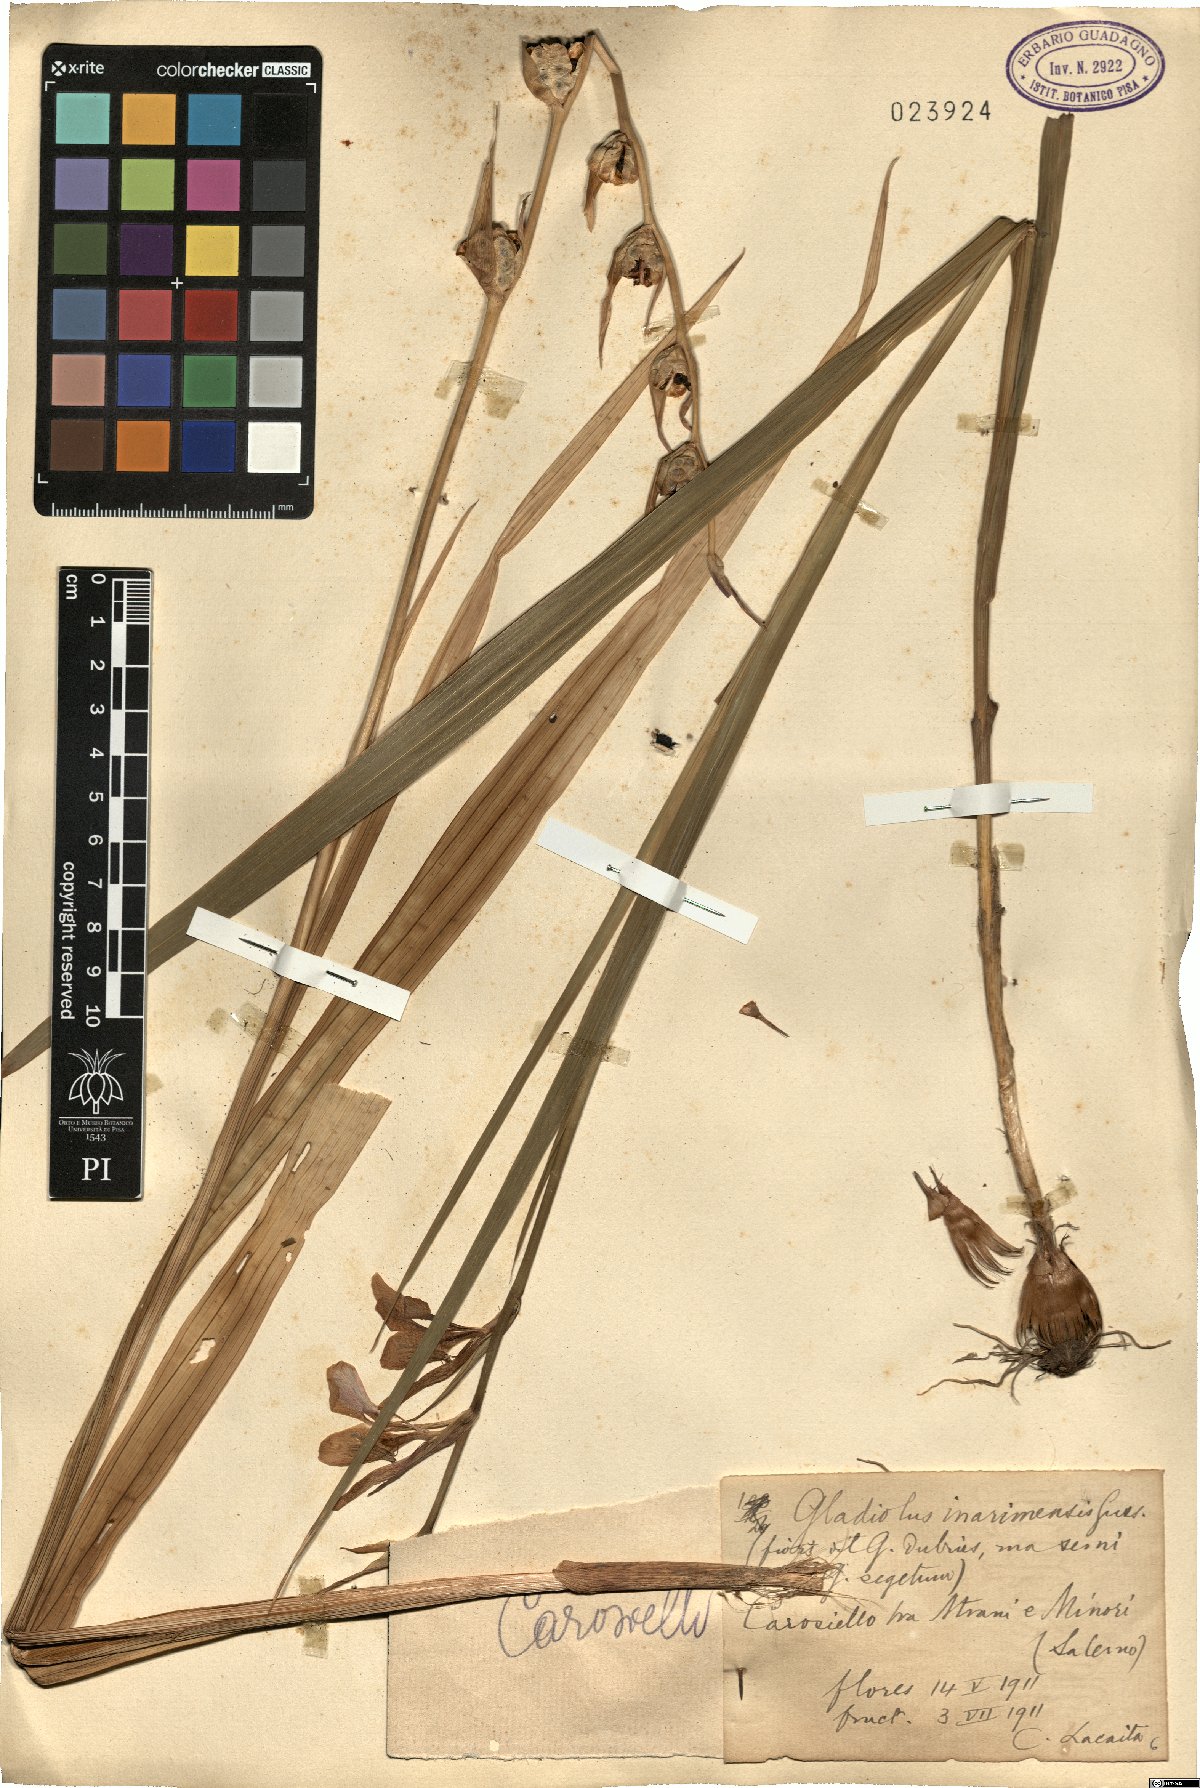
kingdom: Plantae
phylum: Tracheophyta
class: Liliopsida
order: Asparagales
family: Iridaceae
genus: Gladiolus
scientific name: Gladiolus inarimensis
